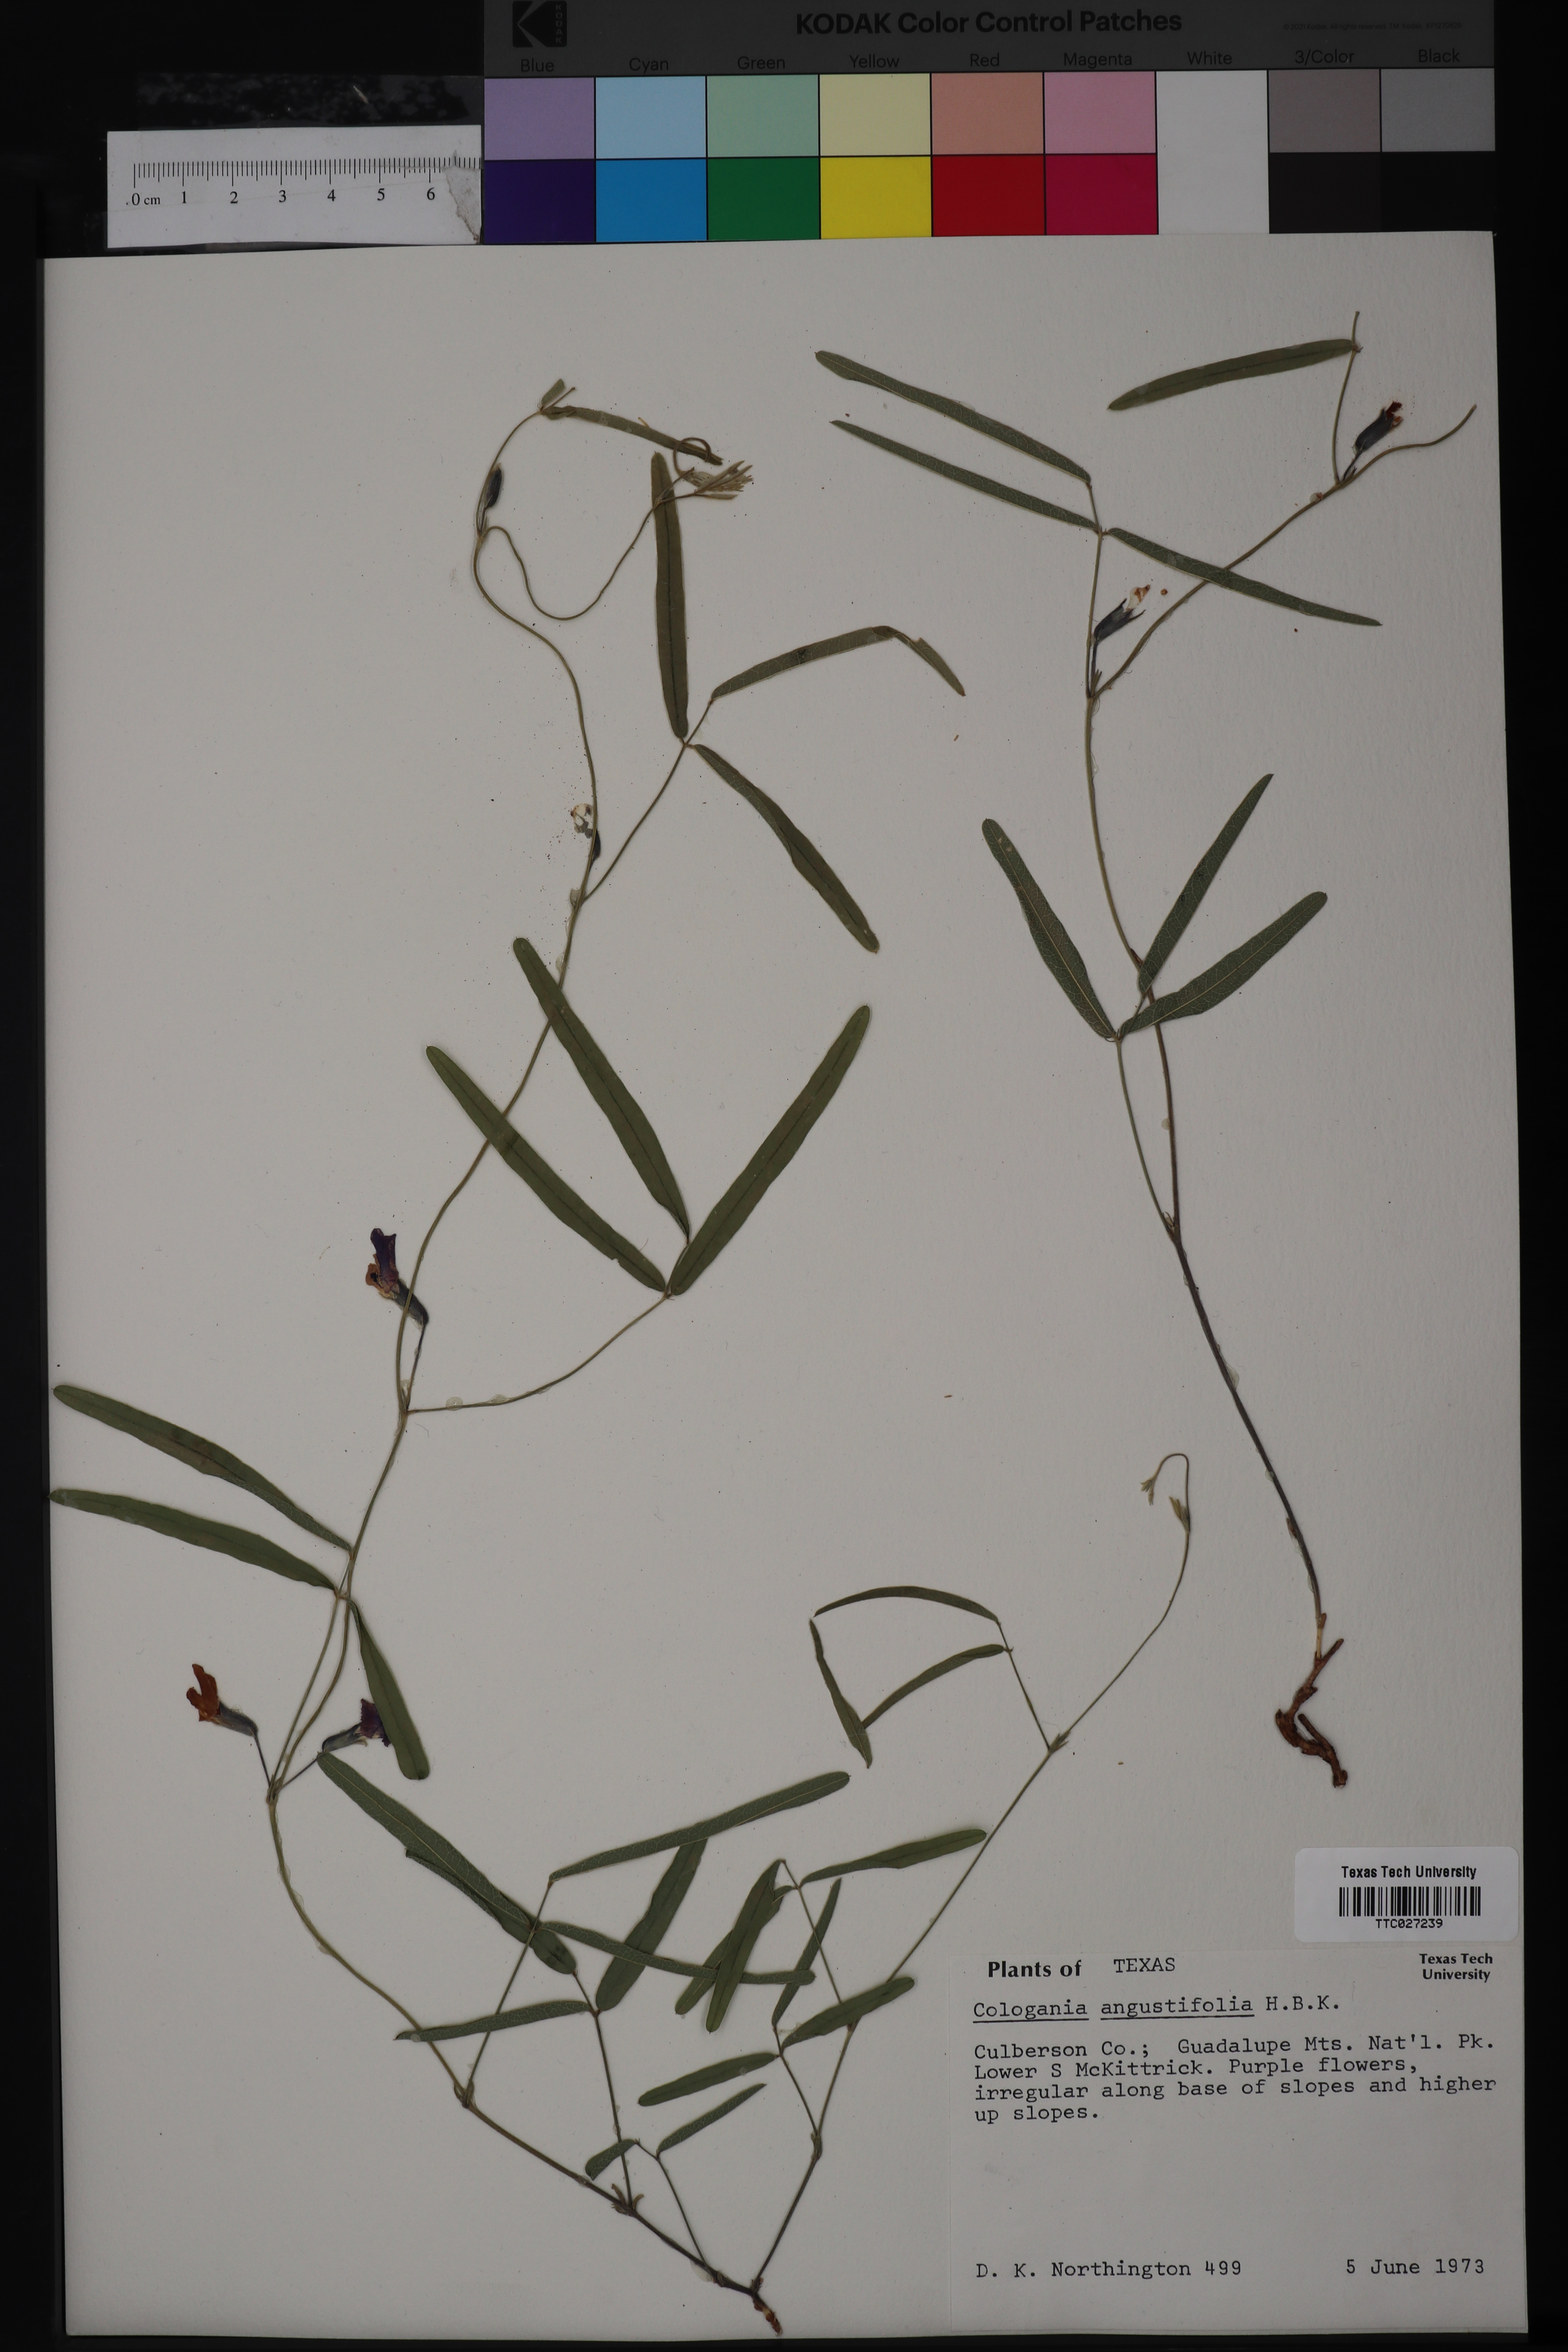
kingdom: Plantae
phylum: Tracheophyta
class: Magnoliopsida
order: Fabales
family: Fabaceae
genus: Cologania
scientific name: Cologania angustifolia
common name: Longleaf cologania
